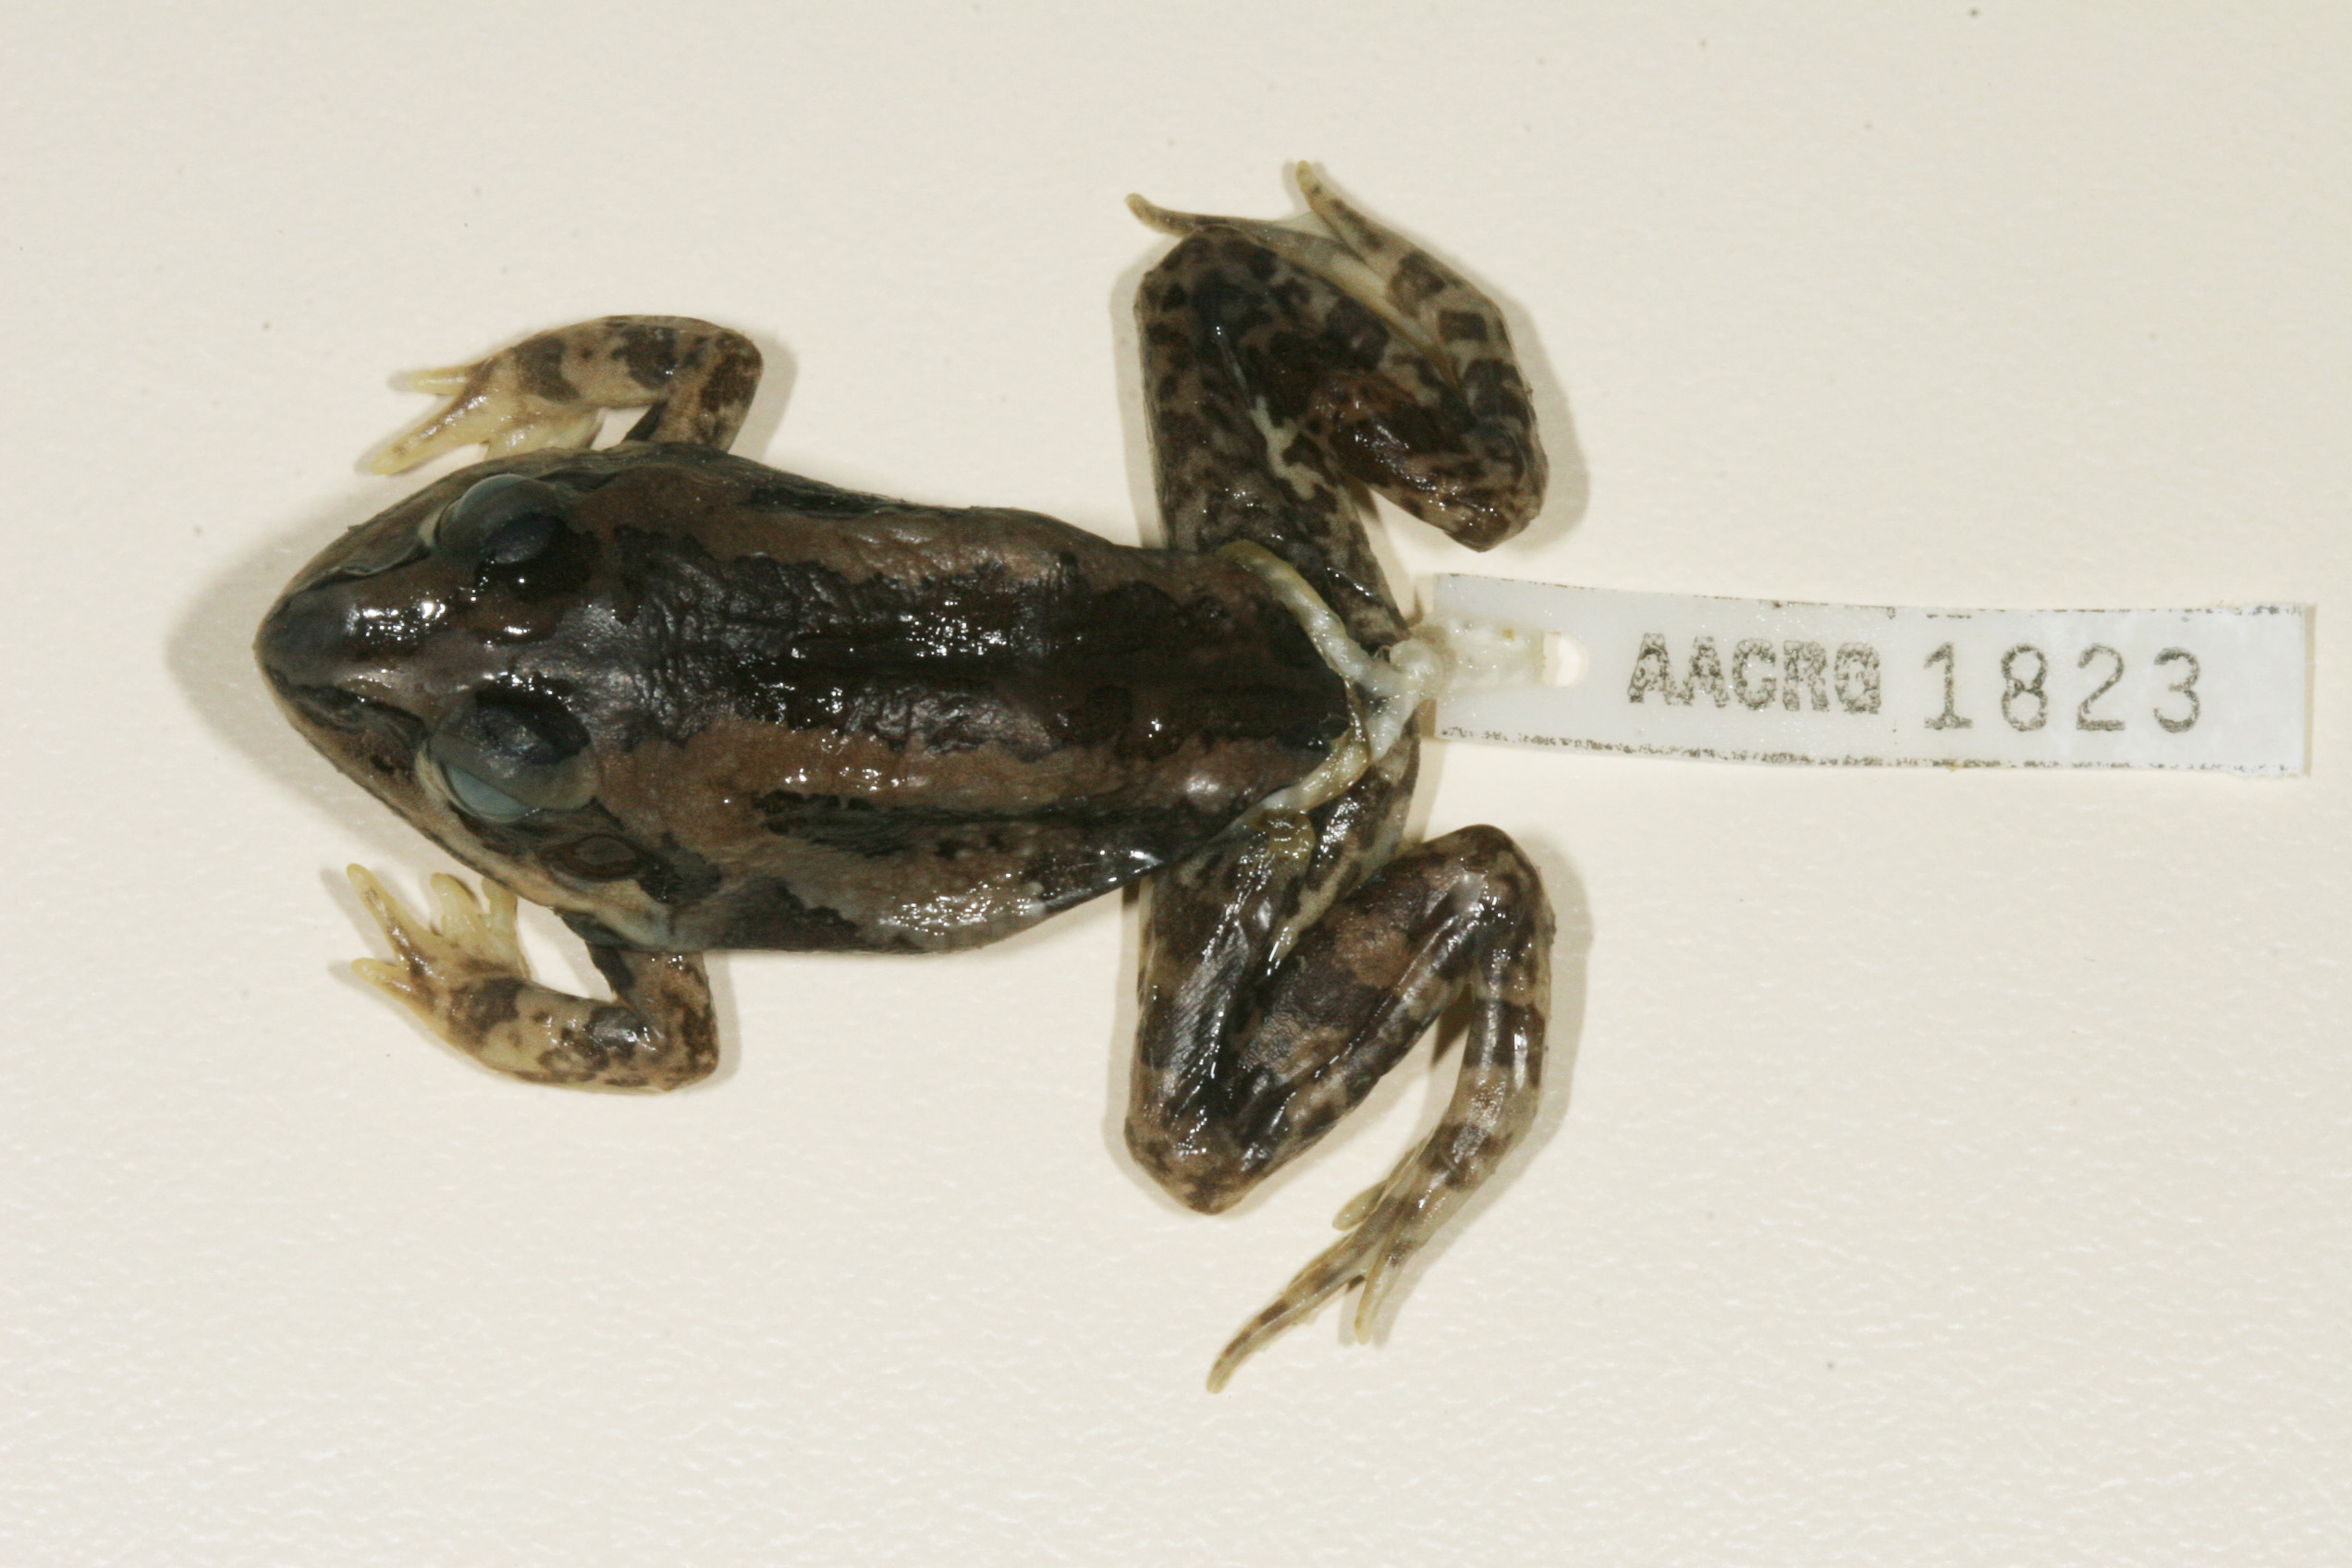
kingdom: Animalia
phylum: Chordata
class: Amphibia
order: Anura
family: Ptychadenidae
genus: Hildebrandtia
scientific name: Hildebrandtia ornata
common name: Ornate frog
